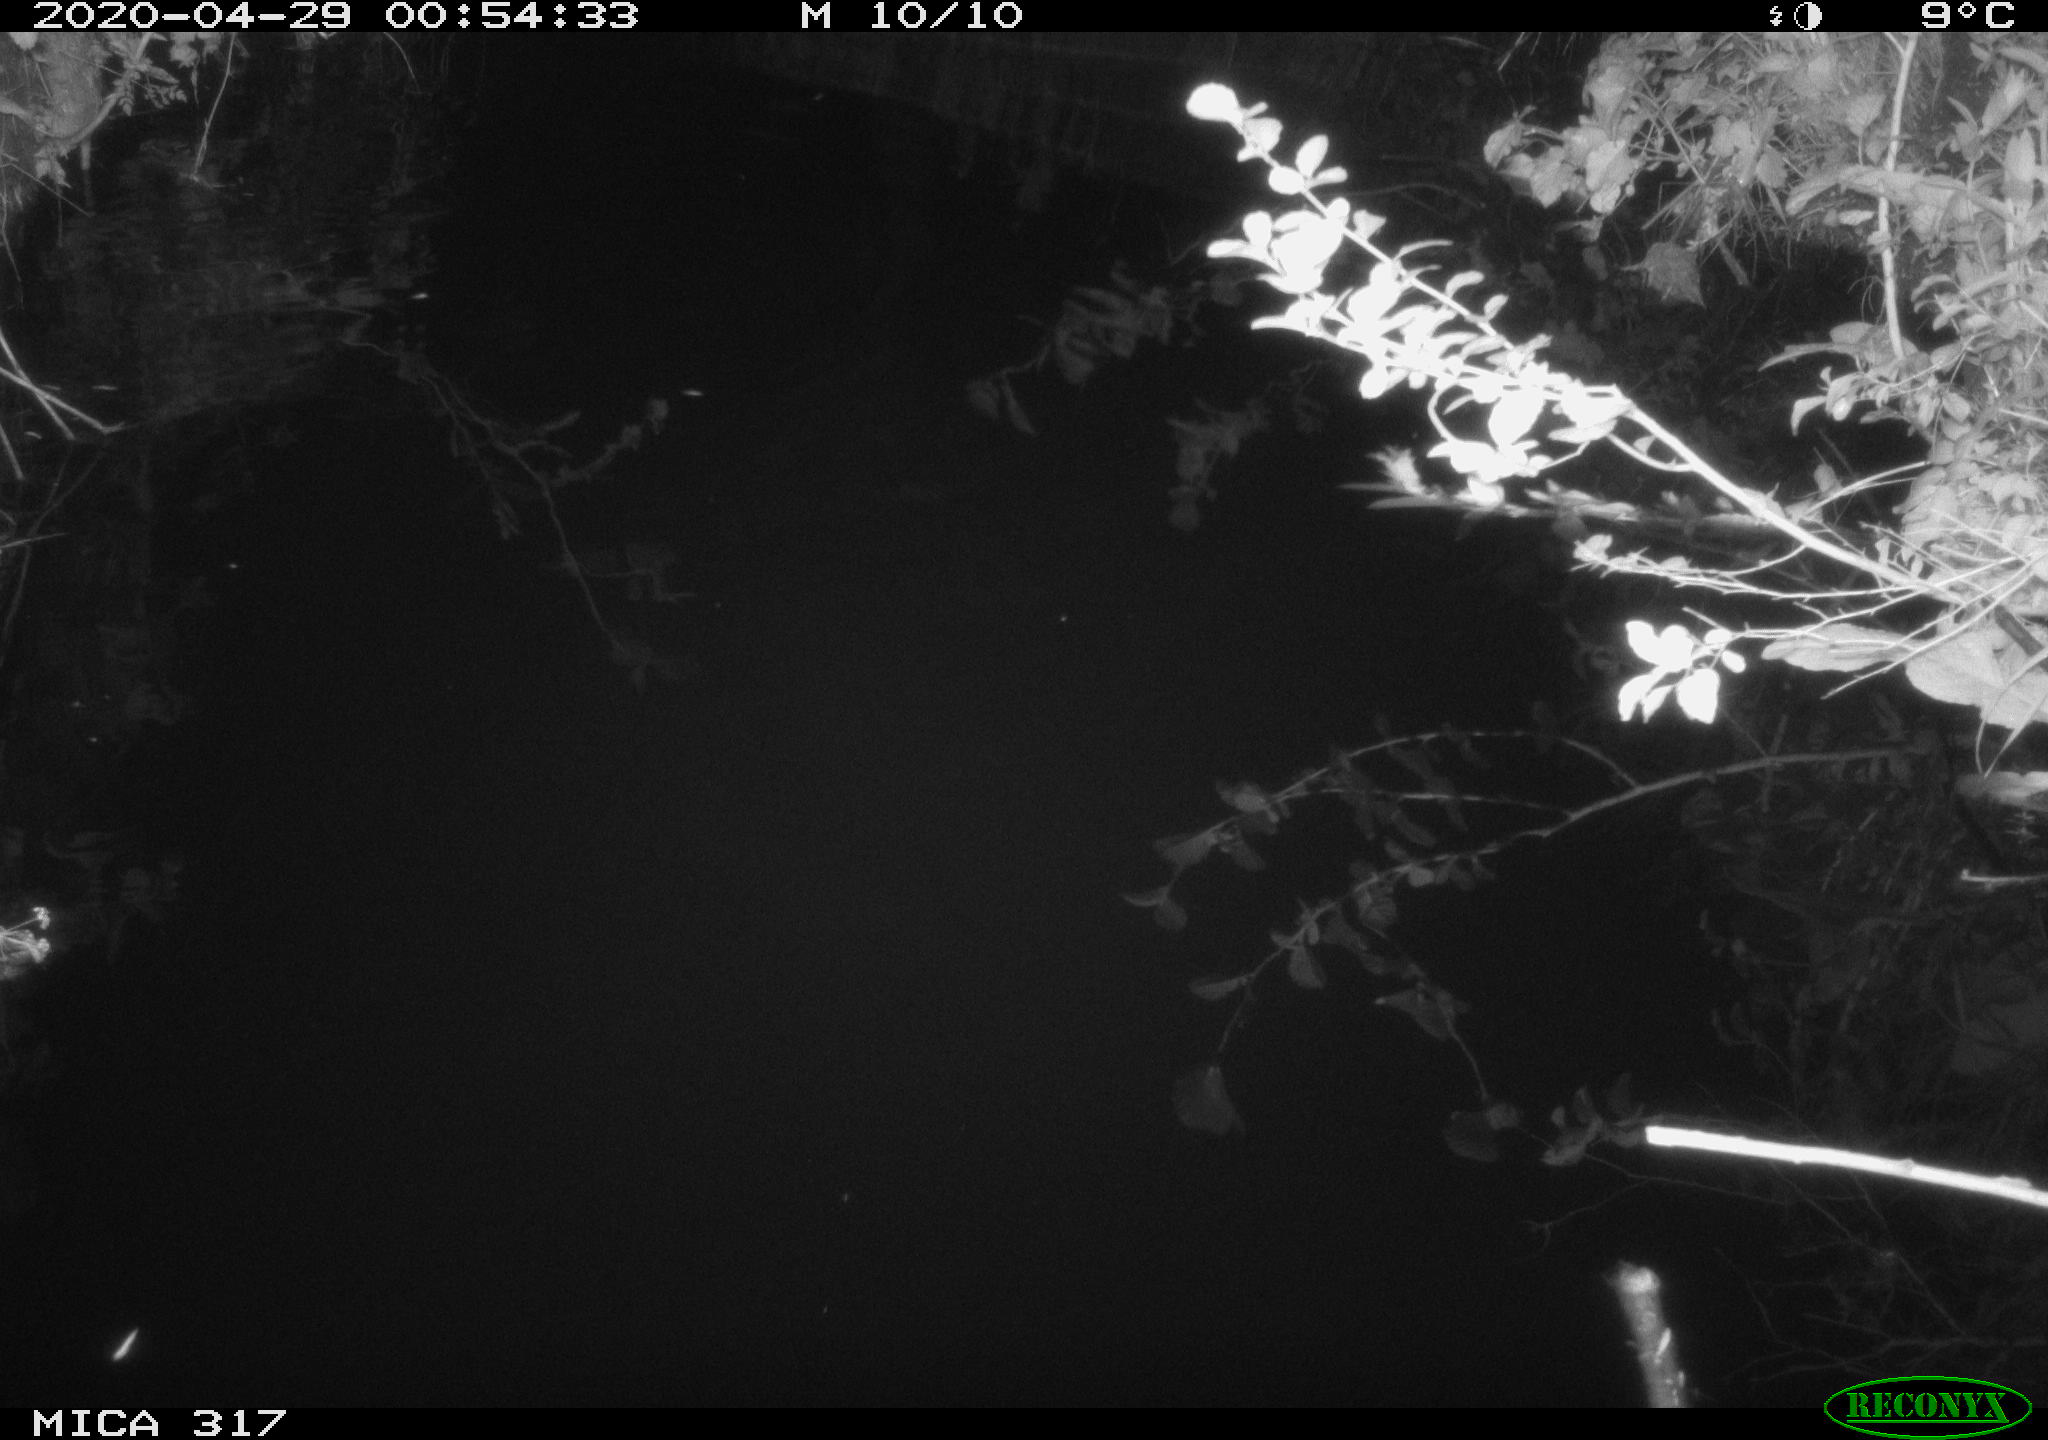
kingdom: Animalia
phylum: Chordata
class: Mammalia
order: Rodentia
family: Muridae
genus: Rattus
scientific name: Rattus norvegicus
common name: Brown rat
